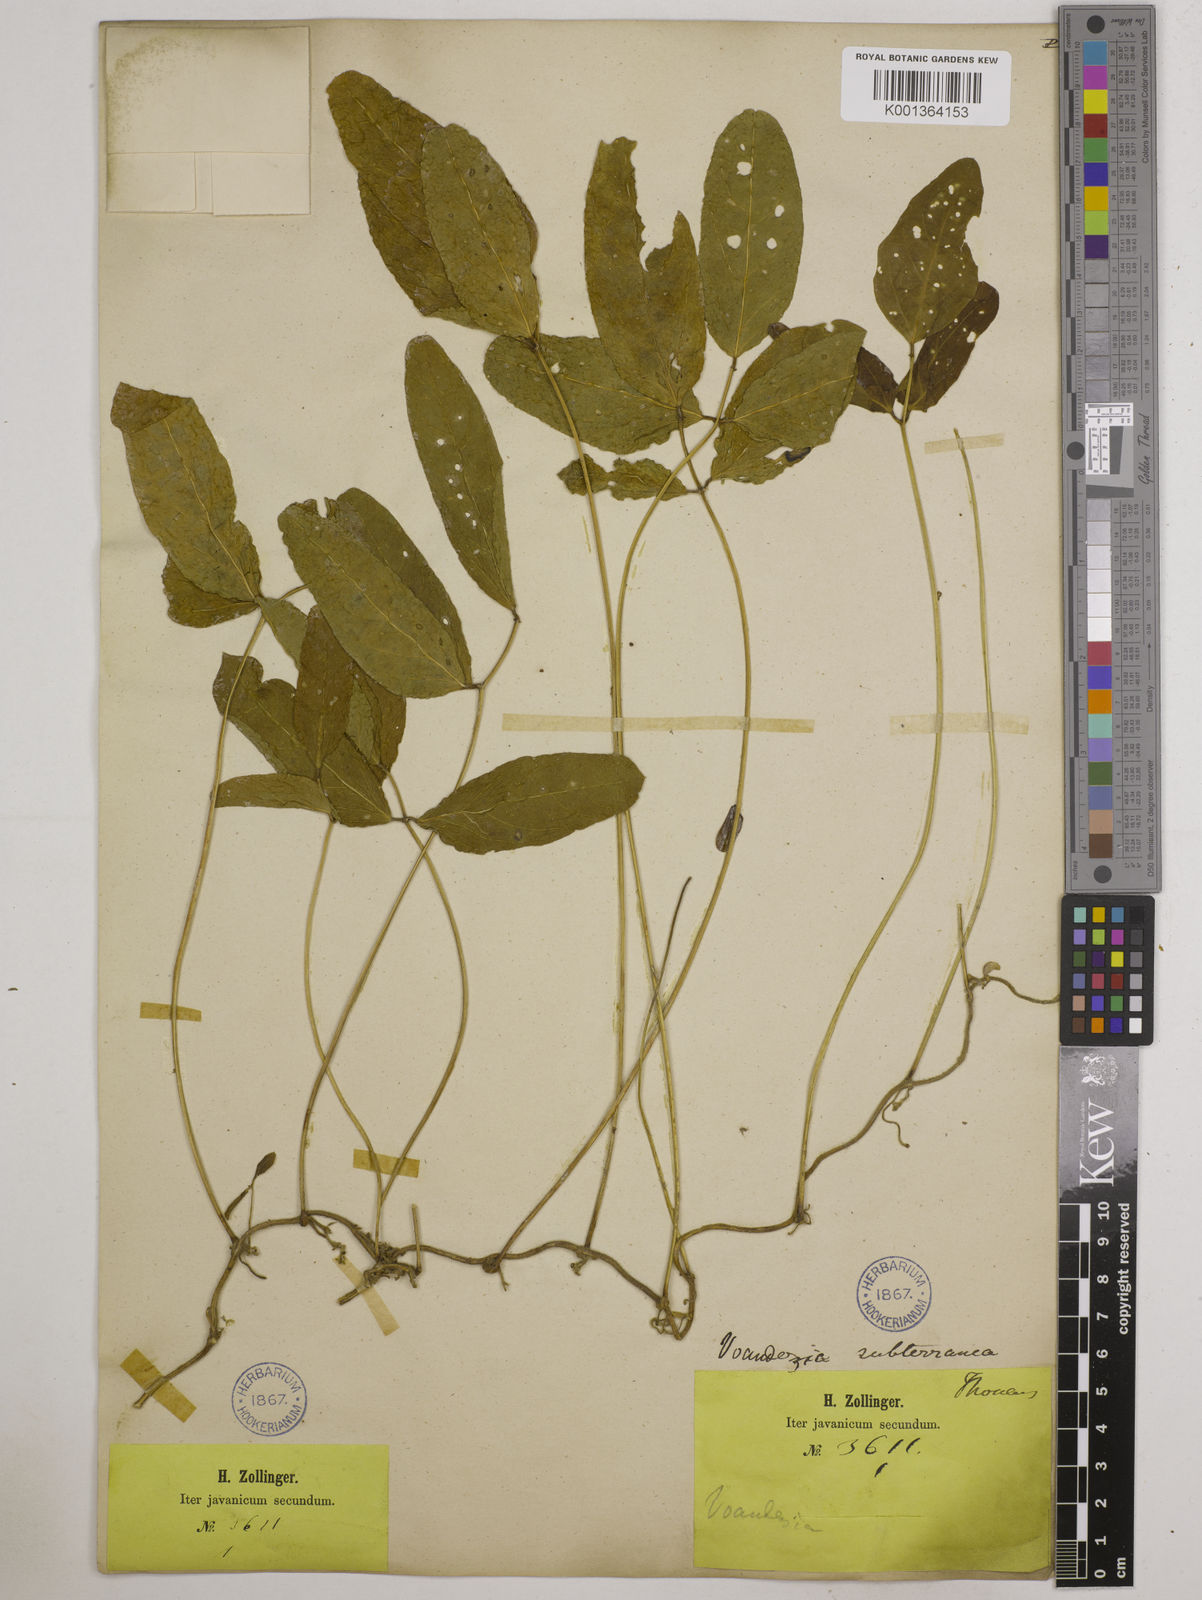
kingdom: Plantae
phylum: Tracheophyta
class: Magnoliopsida
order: Fabales
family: Fabaceae
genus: Vigna
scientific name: Vigna subterranea
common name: Bambara groundnut
